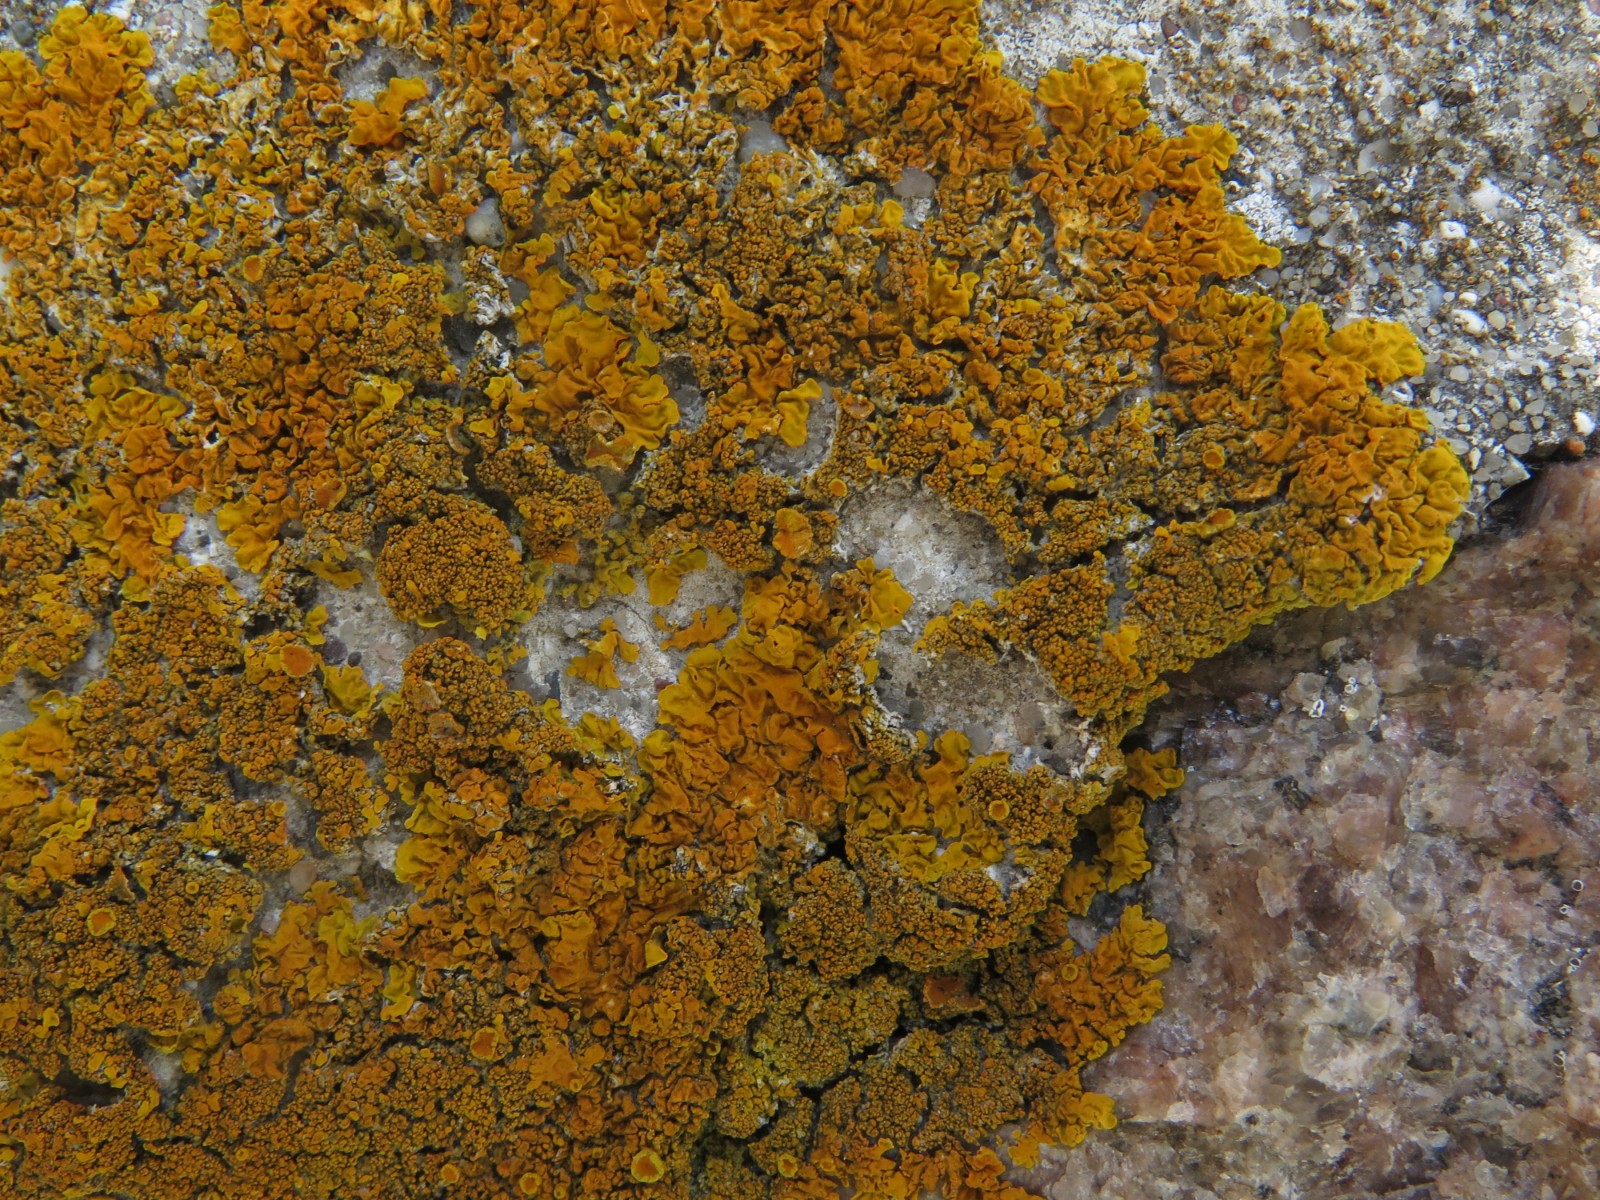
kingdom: Fungi
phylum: Ascomycota
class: Lecanoromycetes
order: Teloschistales
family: Teloschistaceae
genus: Xanthoria
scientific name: Xanthoria calcicola
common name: vortet væggelav
